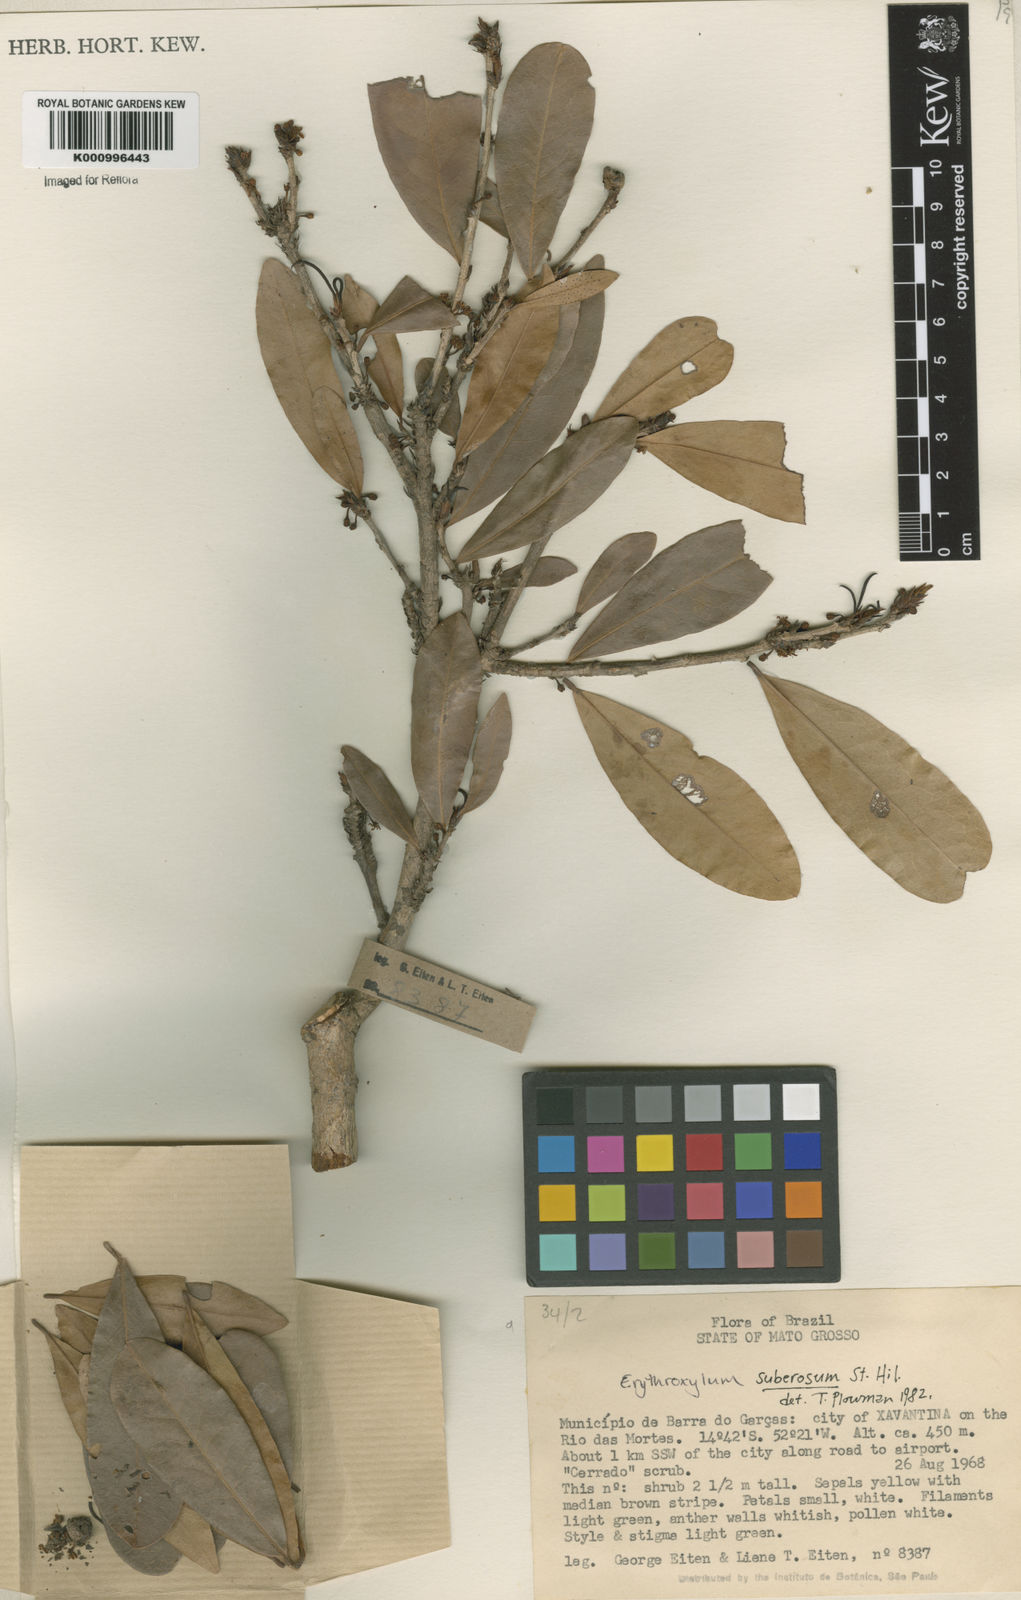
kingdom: Plantae
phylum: Tracheophyta
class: Magnoliopsida
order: Malpighiales
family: Erythroxylaceae
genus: Erythroxylum
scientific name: Erythroxylum suberosum
